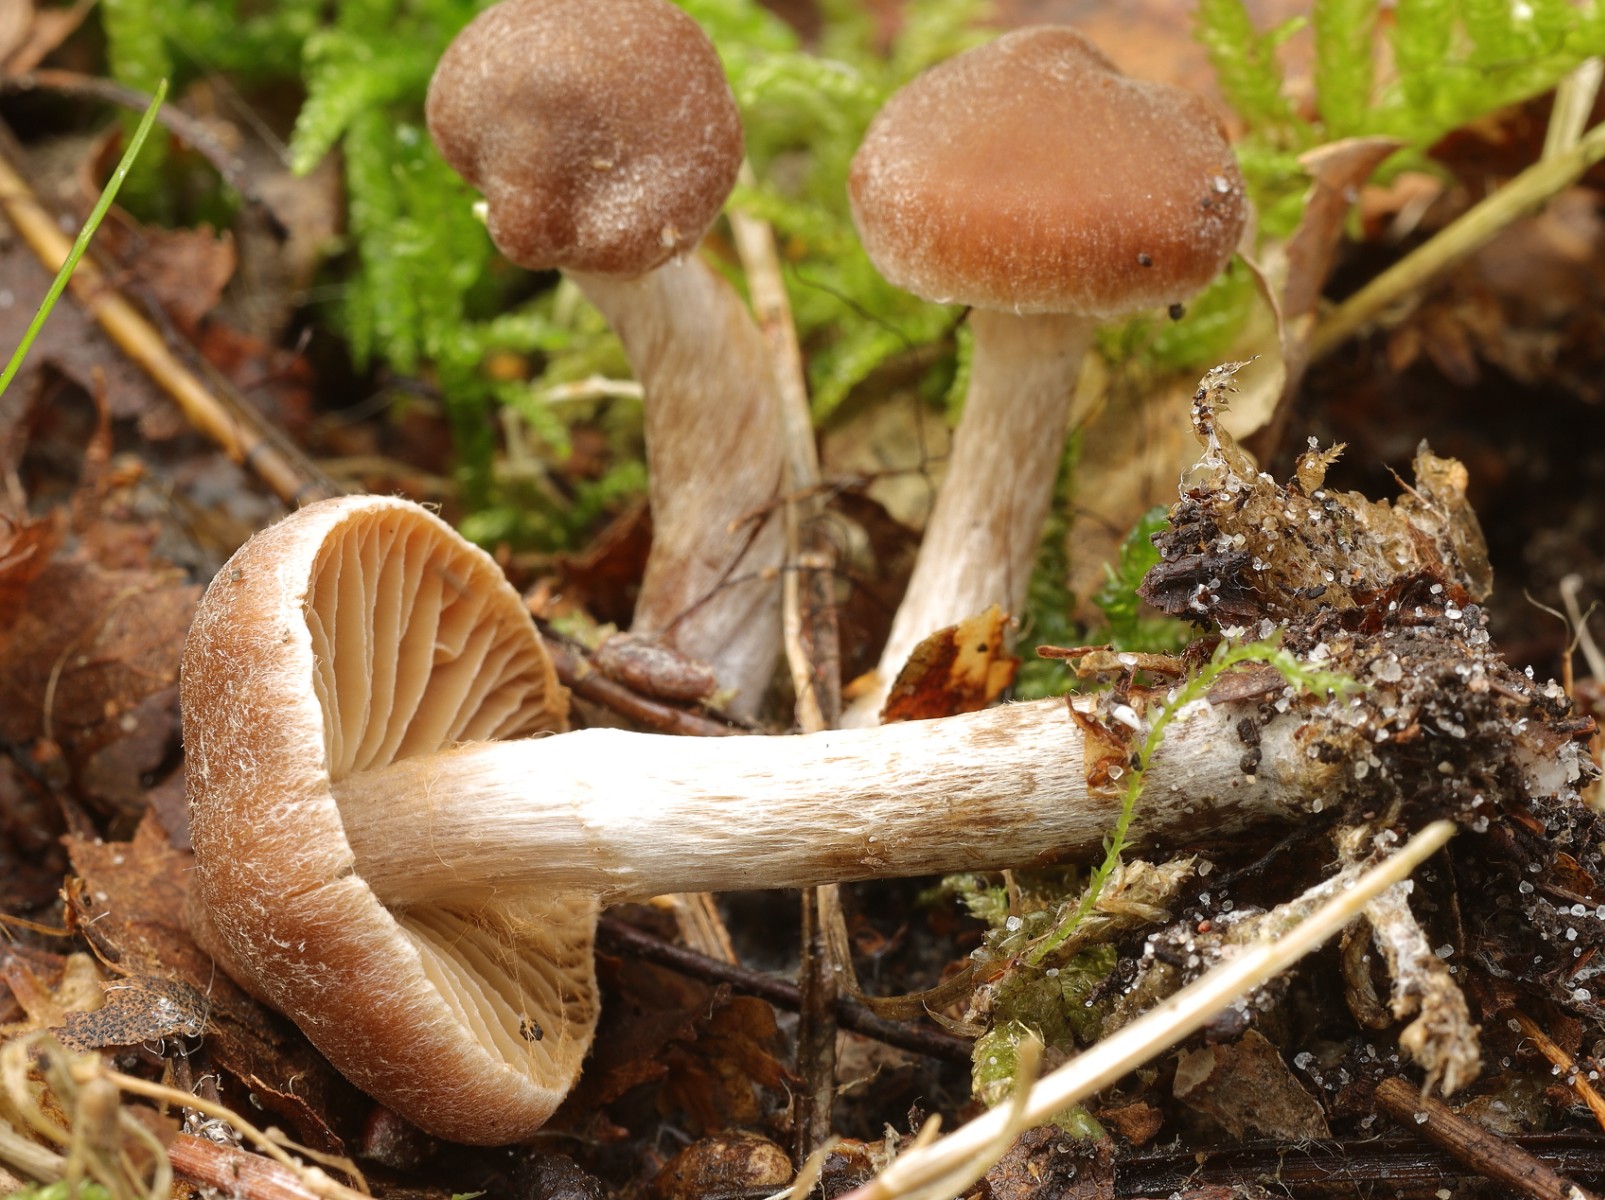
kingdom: Fungi
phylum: Basidiomycota
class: Agaricomycetes
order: Agaricales
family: Cortinariaceae
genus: Cortinarius
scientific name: Cortinarius nigrocuspidatus
